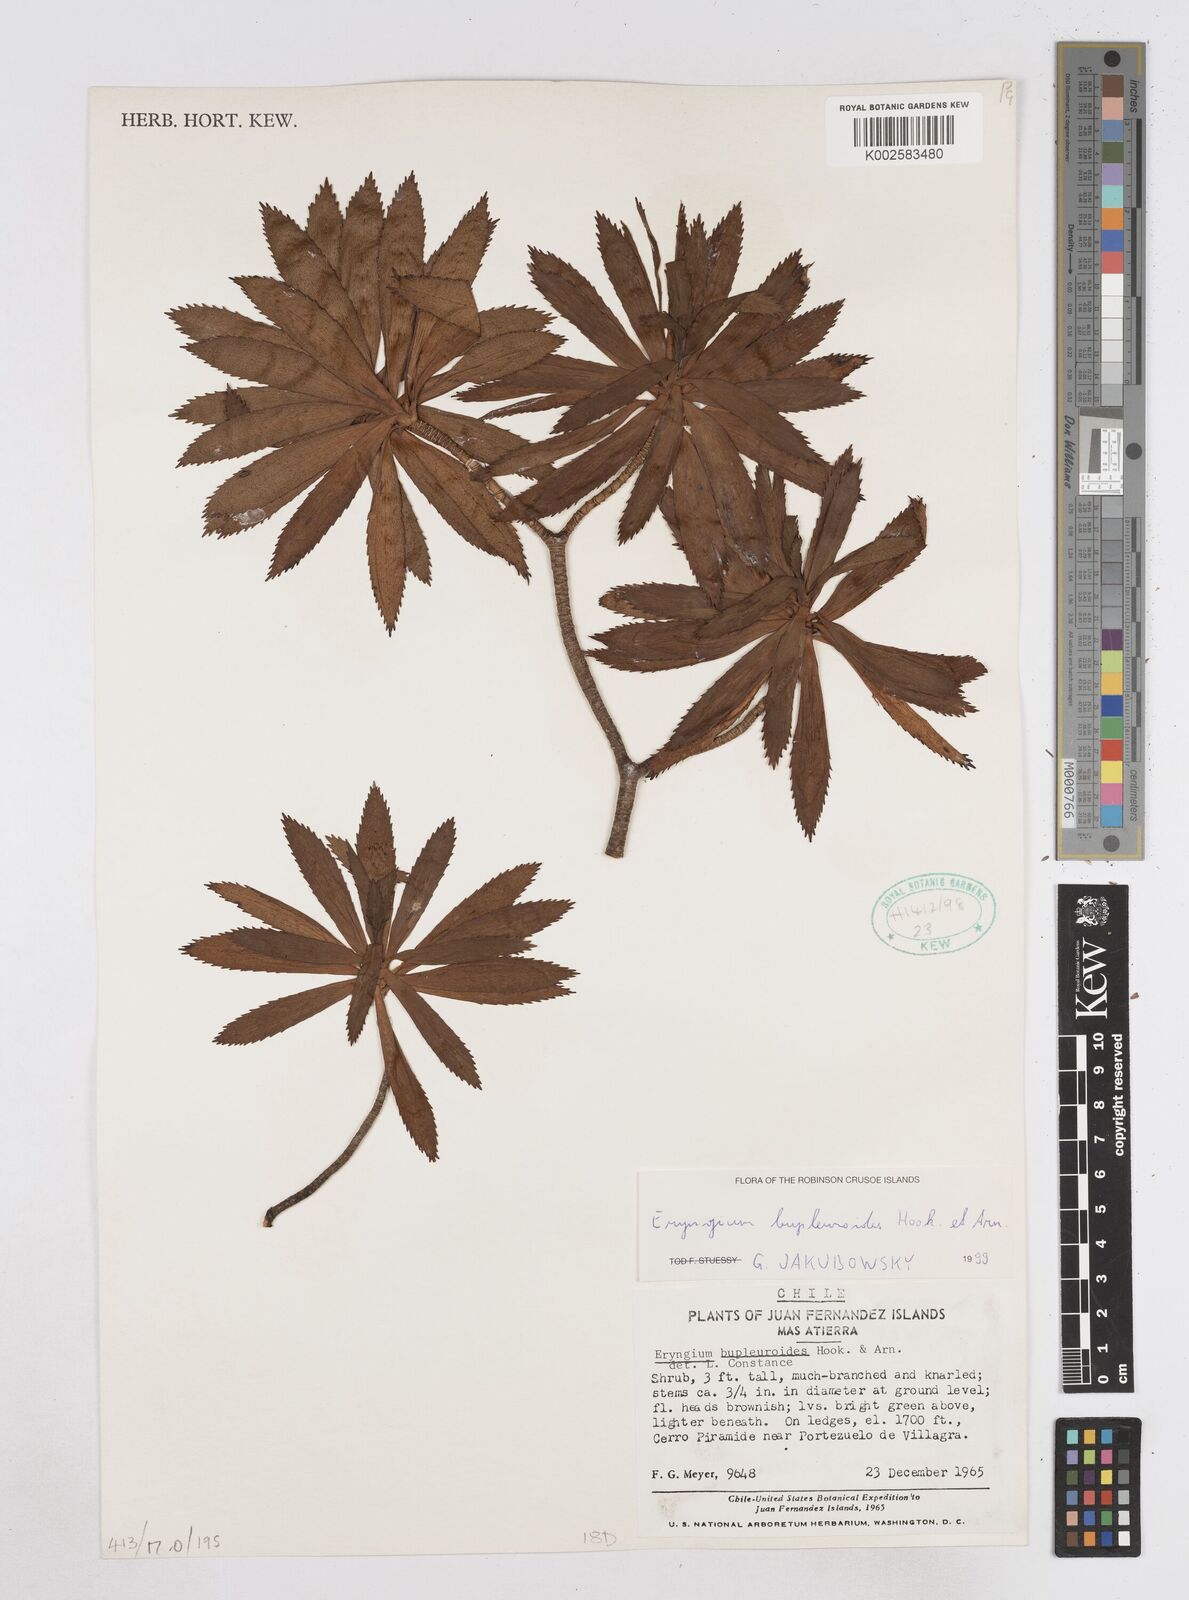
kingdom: Plantae
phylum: Tracheophyta
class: Magnoliopsida
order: Apiales
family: Apiaceae
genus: Eryngium
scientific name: Eryngium bupleuroides
